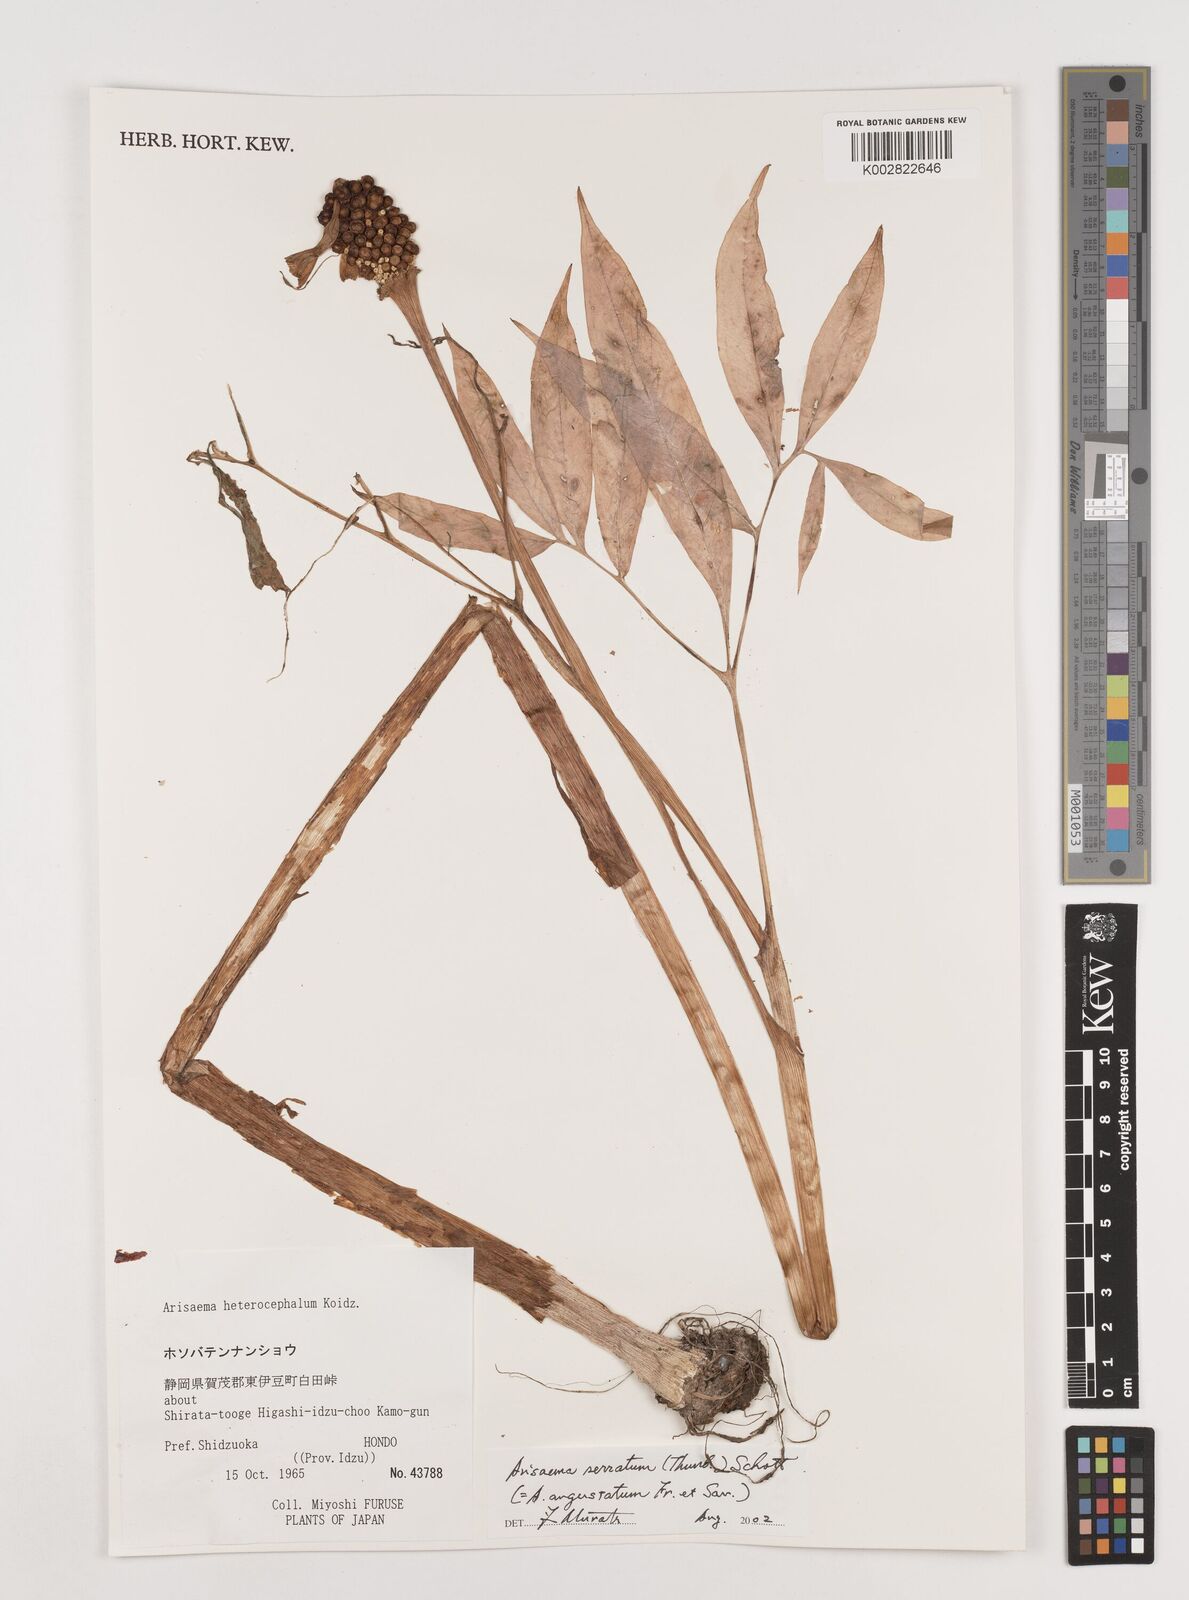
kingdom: Plantae
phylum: Tracheophyta
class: Liliopsida
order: Alismatales
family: Araceae
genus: Arisaema
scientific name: Arisaema serratum
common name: Japanese arisaema
